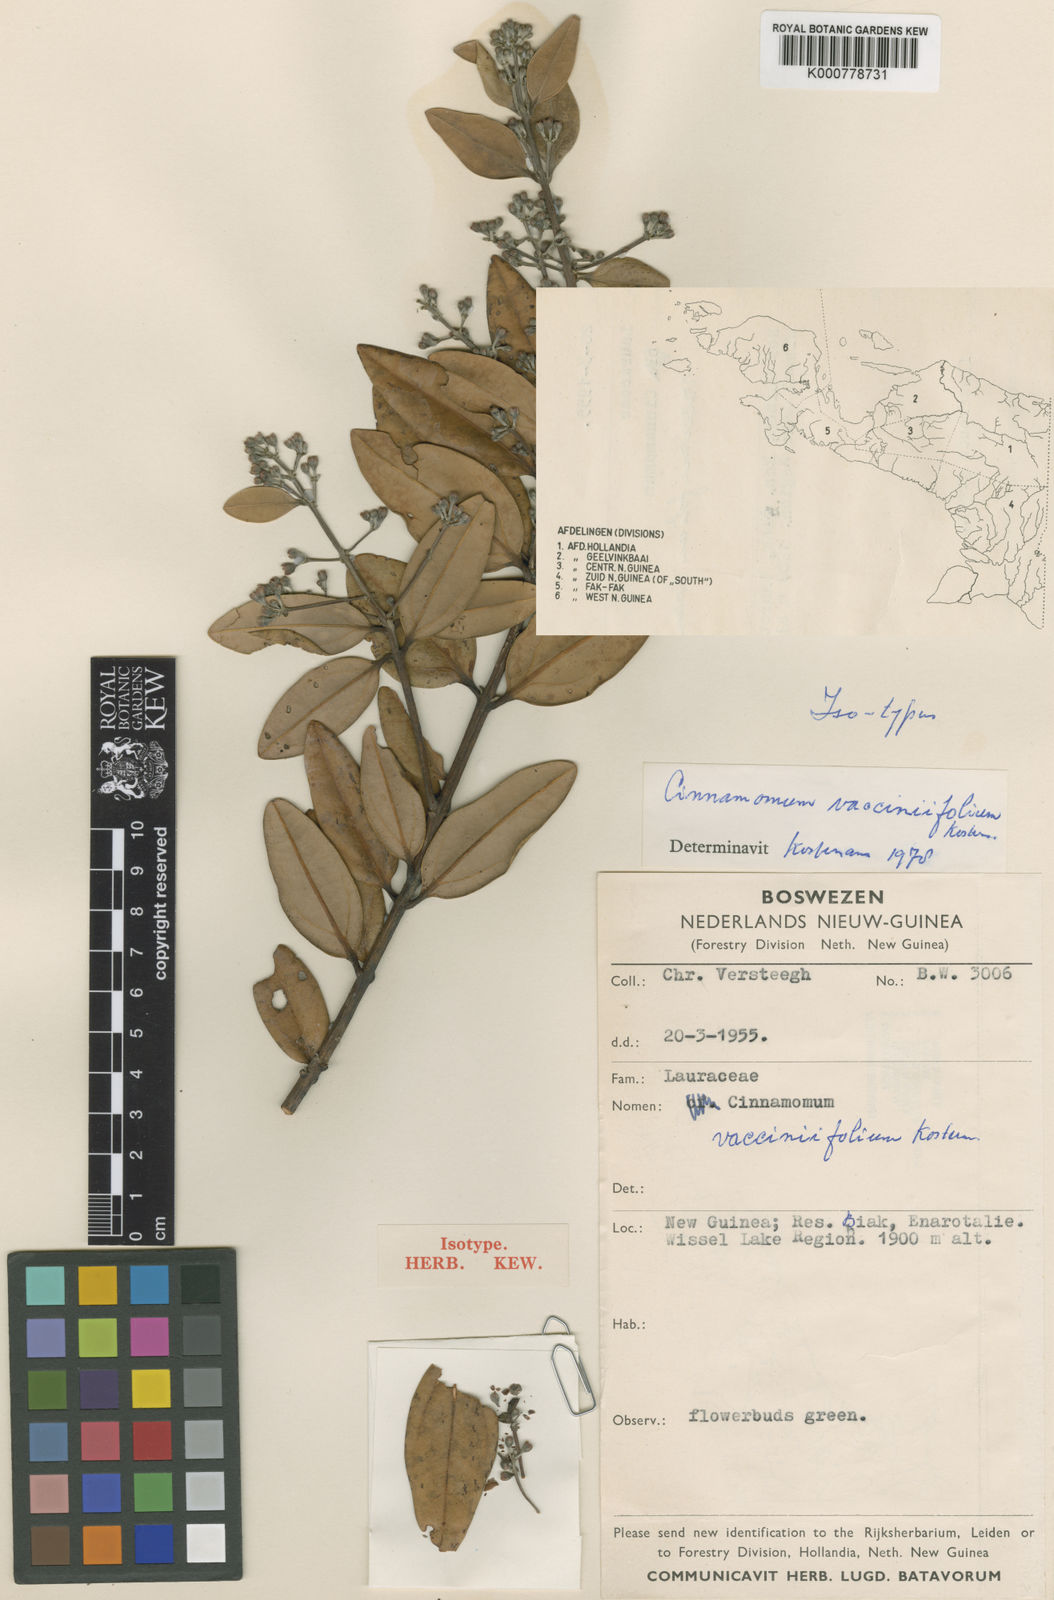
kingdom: Plantae
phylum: Tracheophyta
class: Magnoliopsida
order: Laurales
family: Lauraceae
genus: Cinnamomum
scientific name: Cinnamomum vacciniifolium
